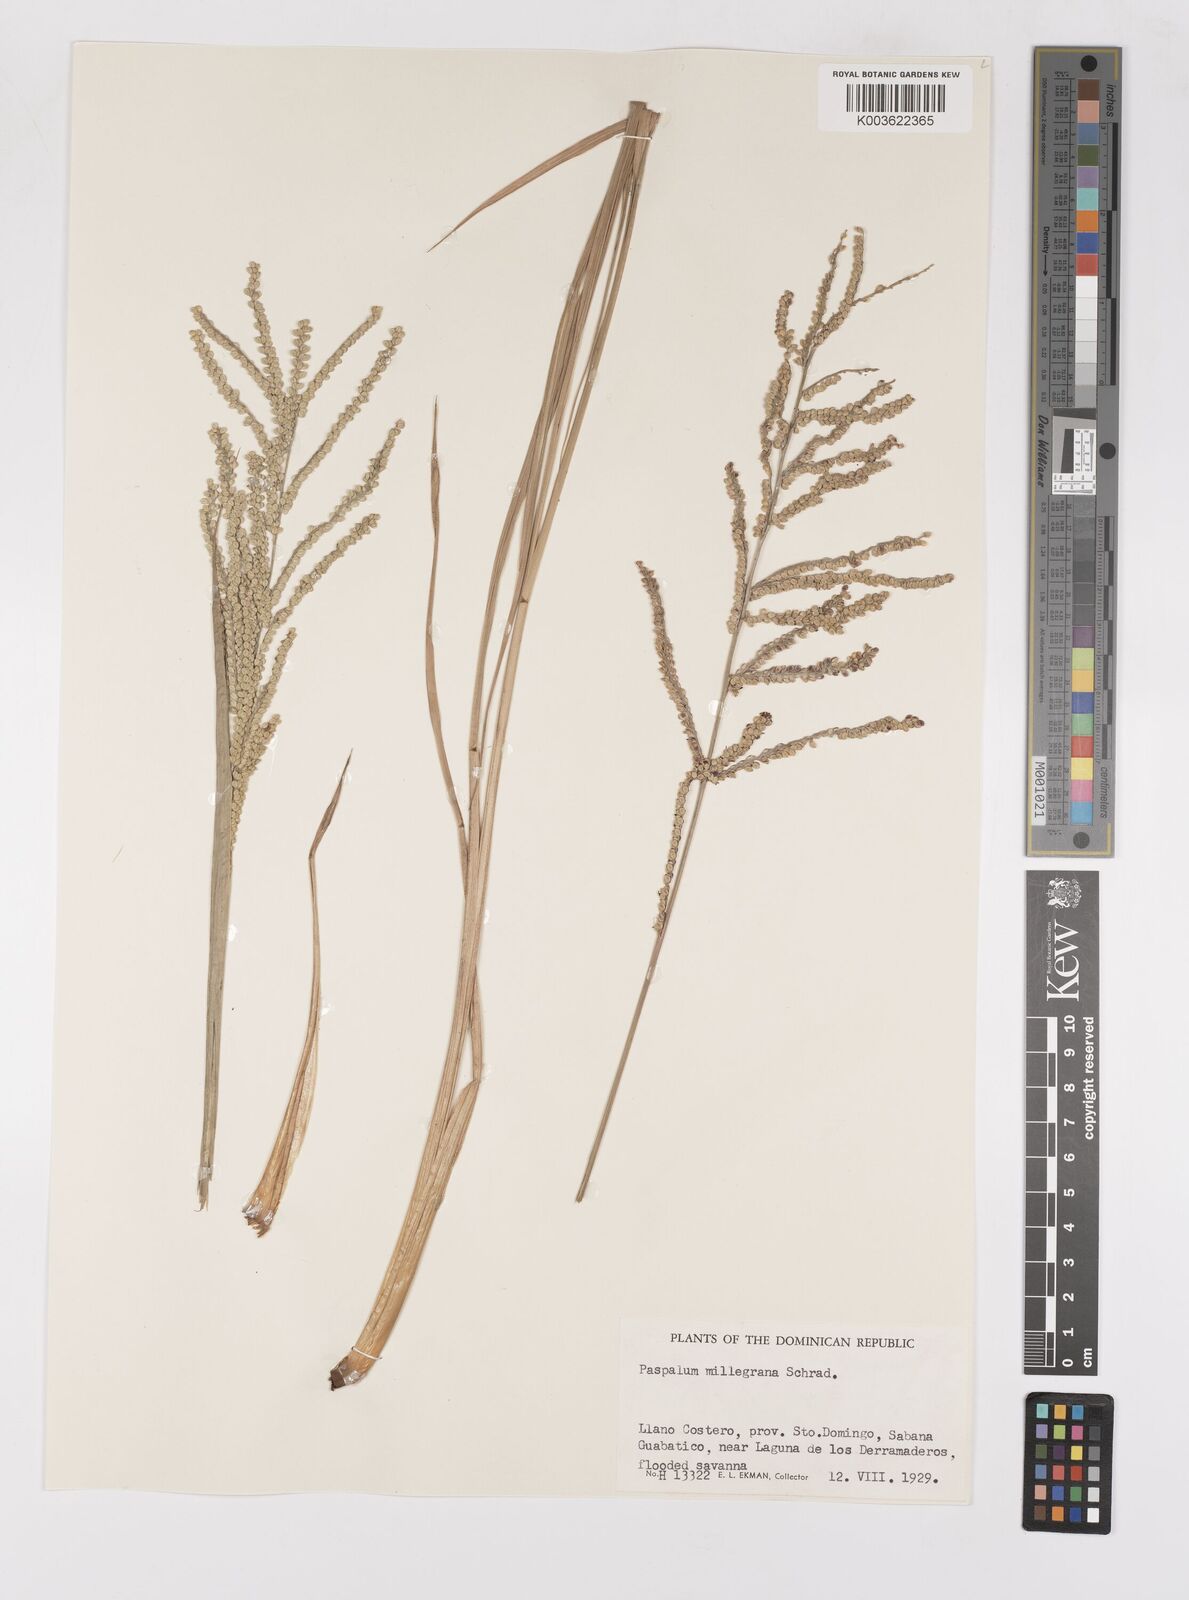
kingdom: Plantae
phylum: Tracheophyta
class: Liliopsida
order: Poales
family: Poaceae
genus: Paspalum
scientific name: Paspalum millegranum
